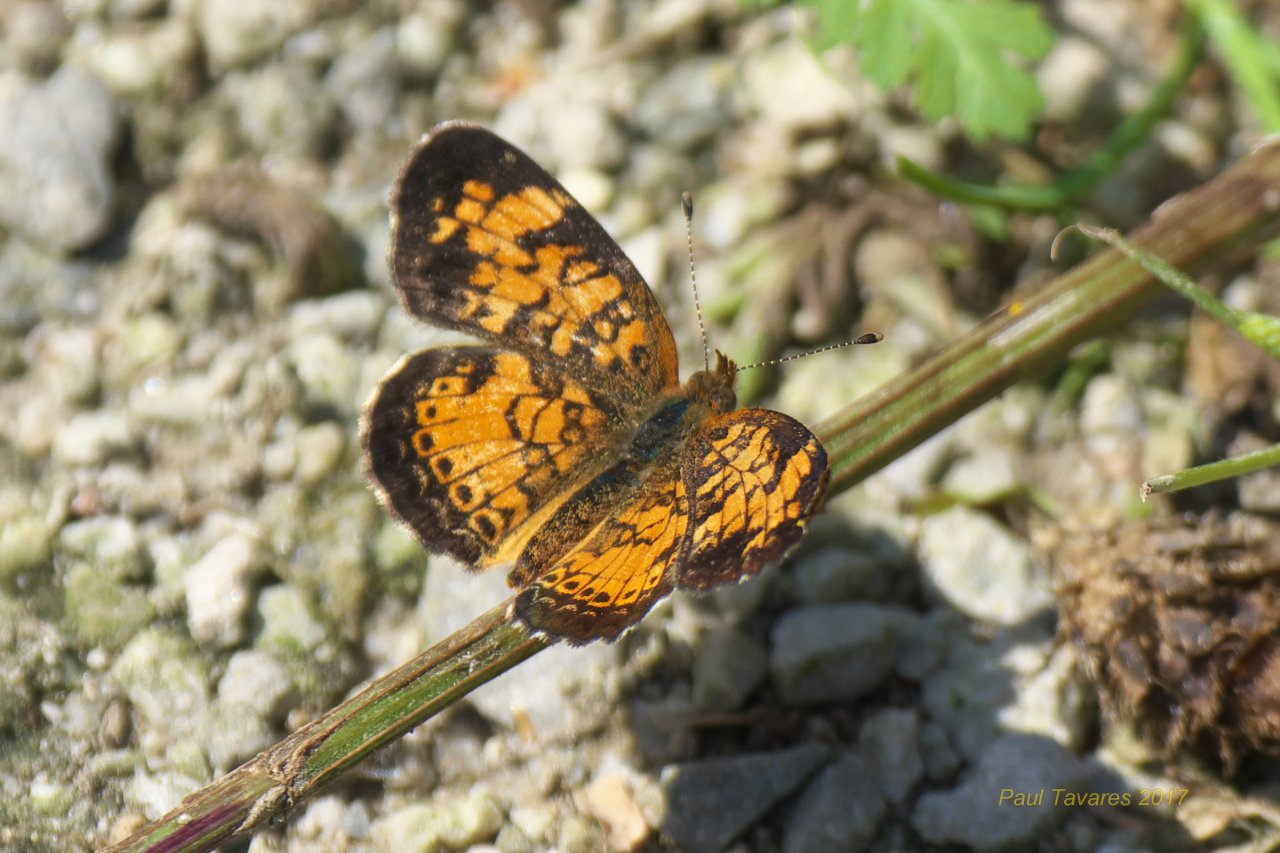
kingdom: Animalia
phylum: Arthropoda
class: Insecta
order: Lepidoptera
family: Nymphalidae
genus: Phyciodes
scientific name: Phyciodes tharos
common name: Pearl Crescent
